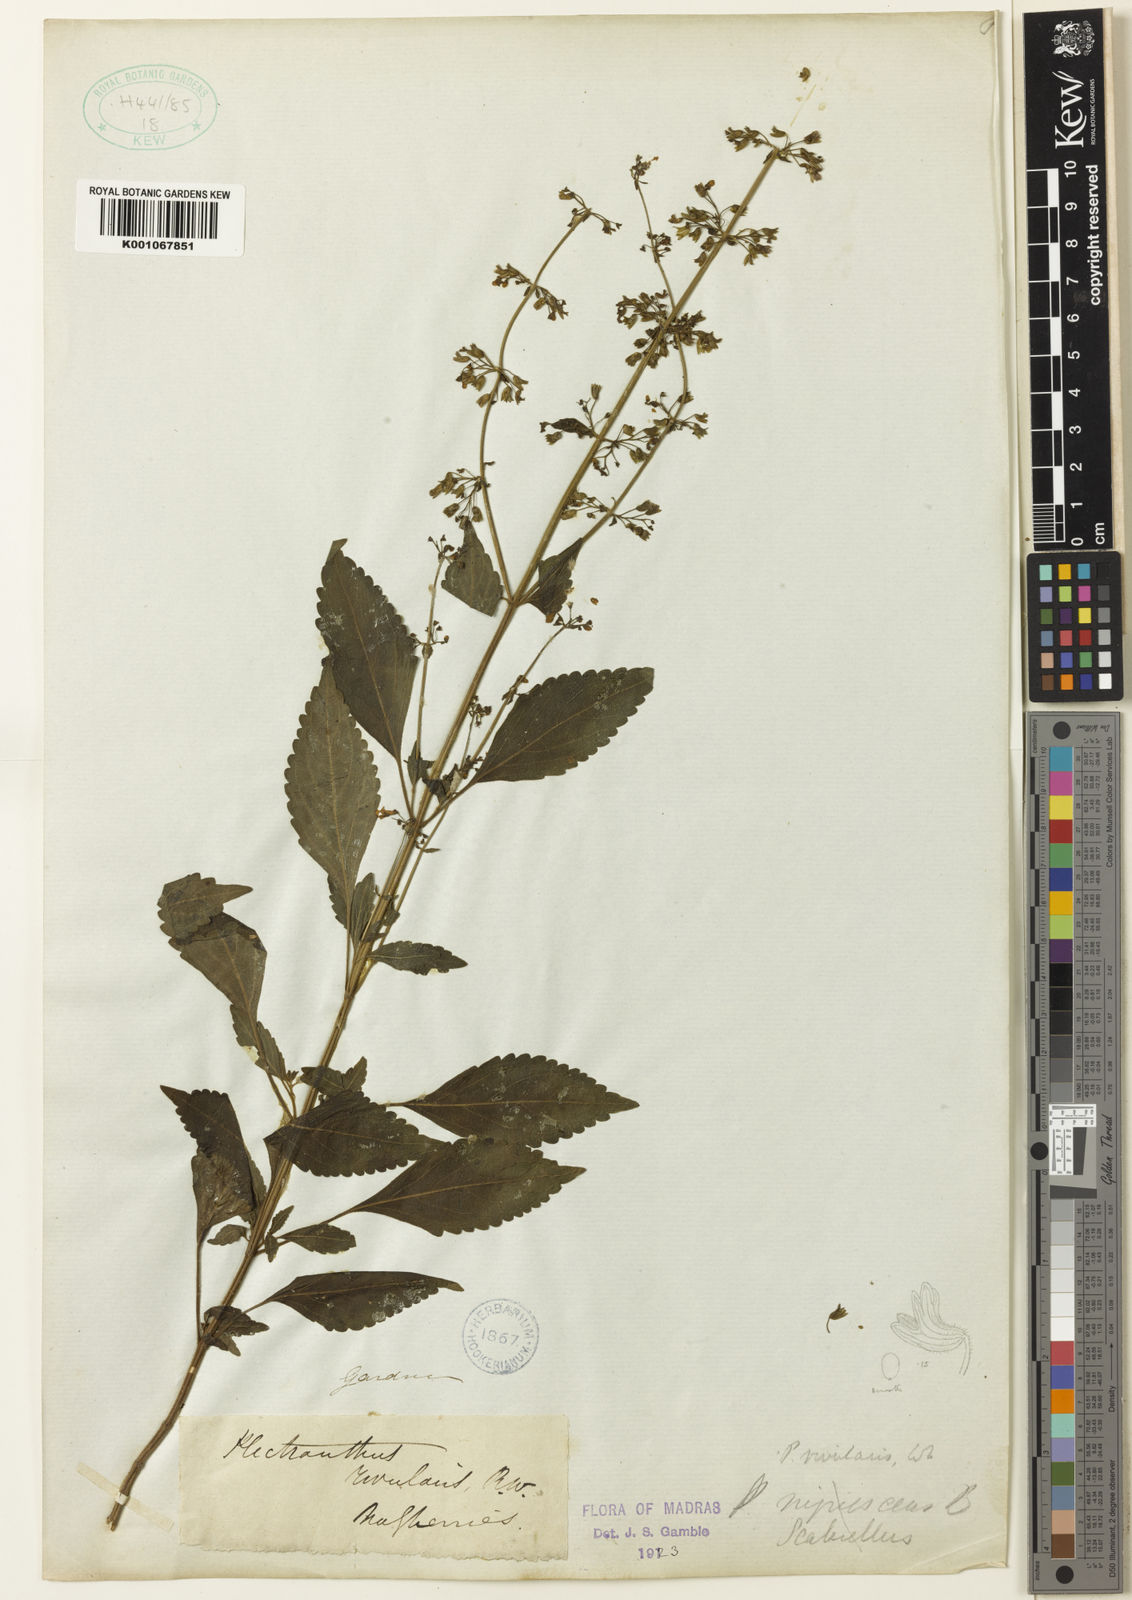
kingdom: Plantae
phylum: Tracheophyta
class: Magnoliopsida
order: Lamiales
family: Lamiaceae
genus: Isodon
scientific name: Isodon rivularis
